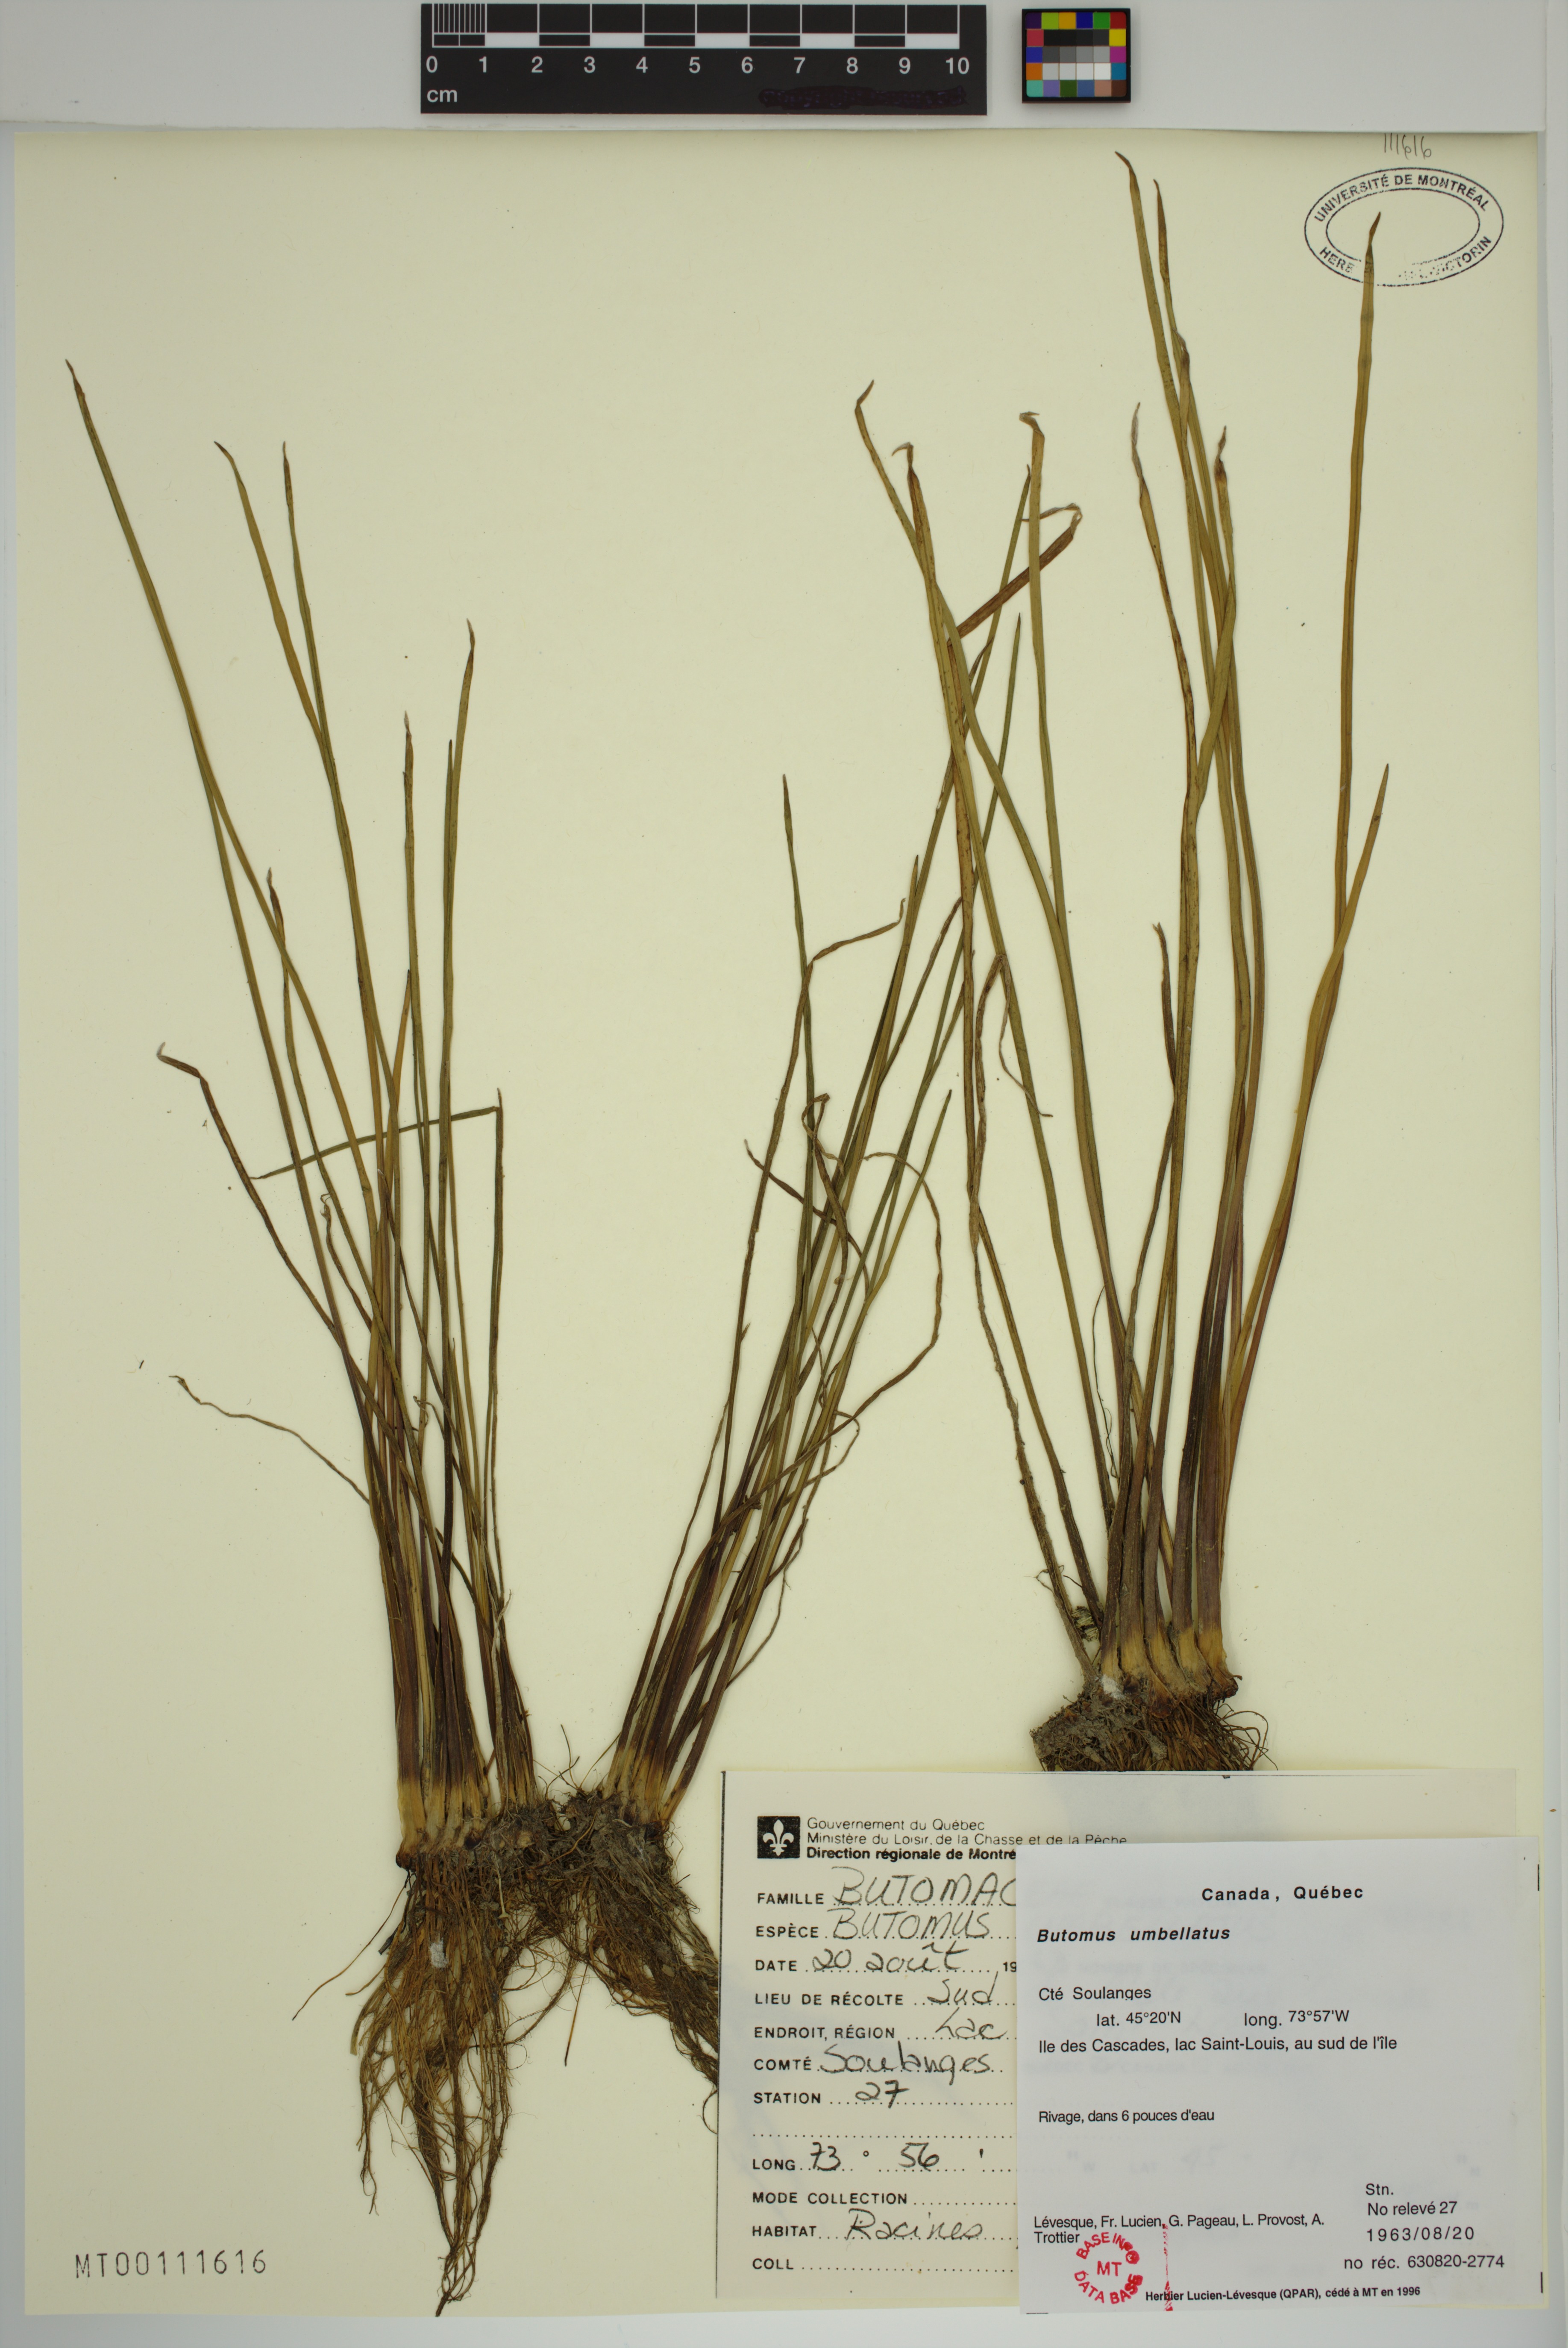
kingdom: Plantae
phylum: Tracheophyta
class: Liliopsida
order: Alismatales
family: Butomaceae
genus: Butomus
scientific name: Butomus umbellatus
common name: Flowering-rush
